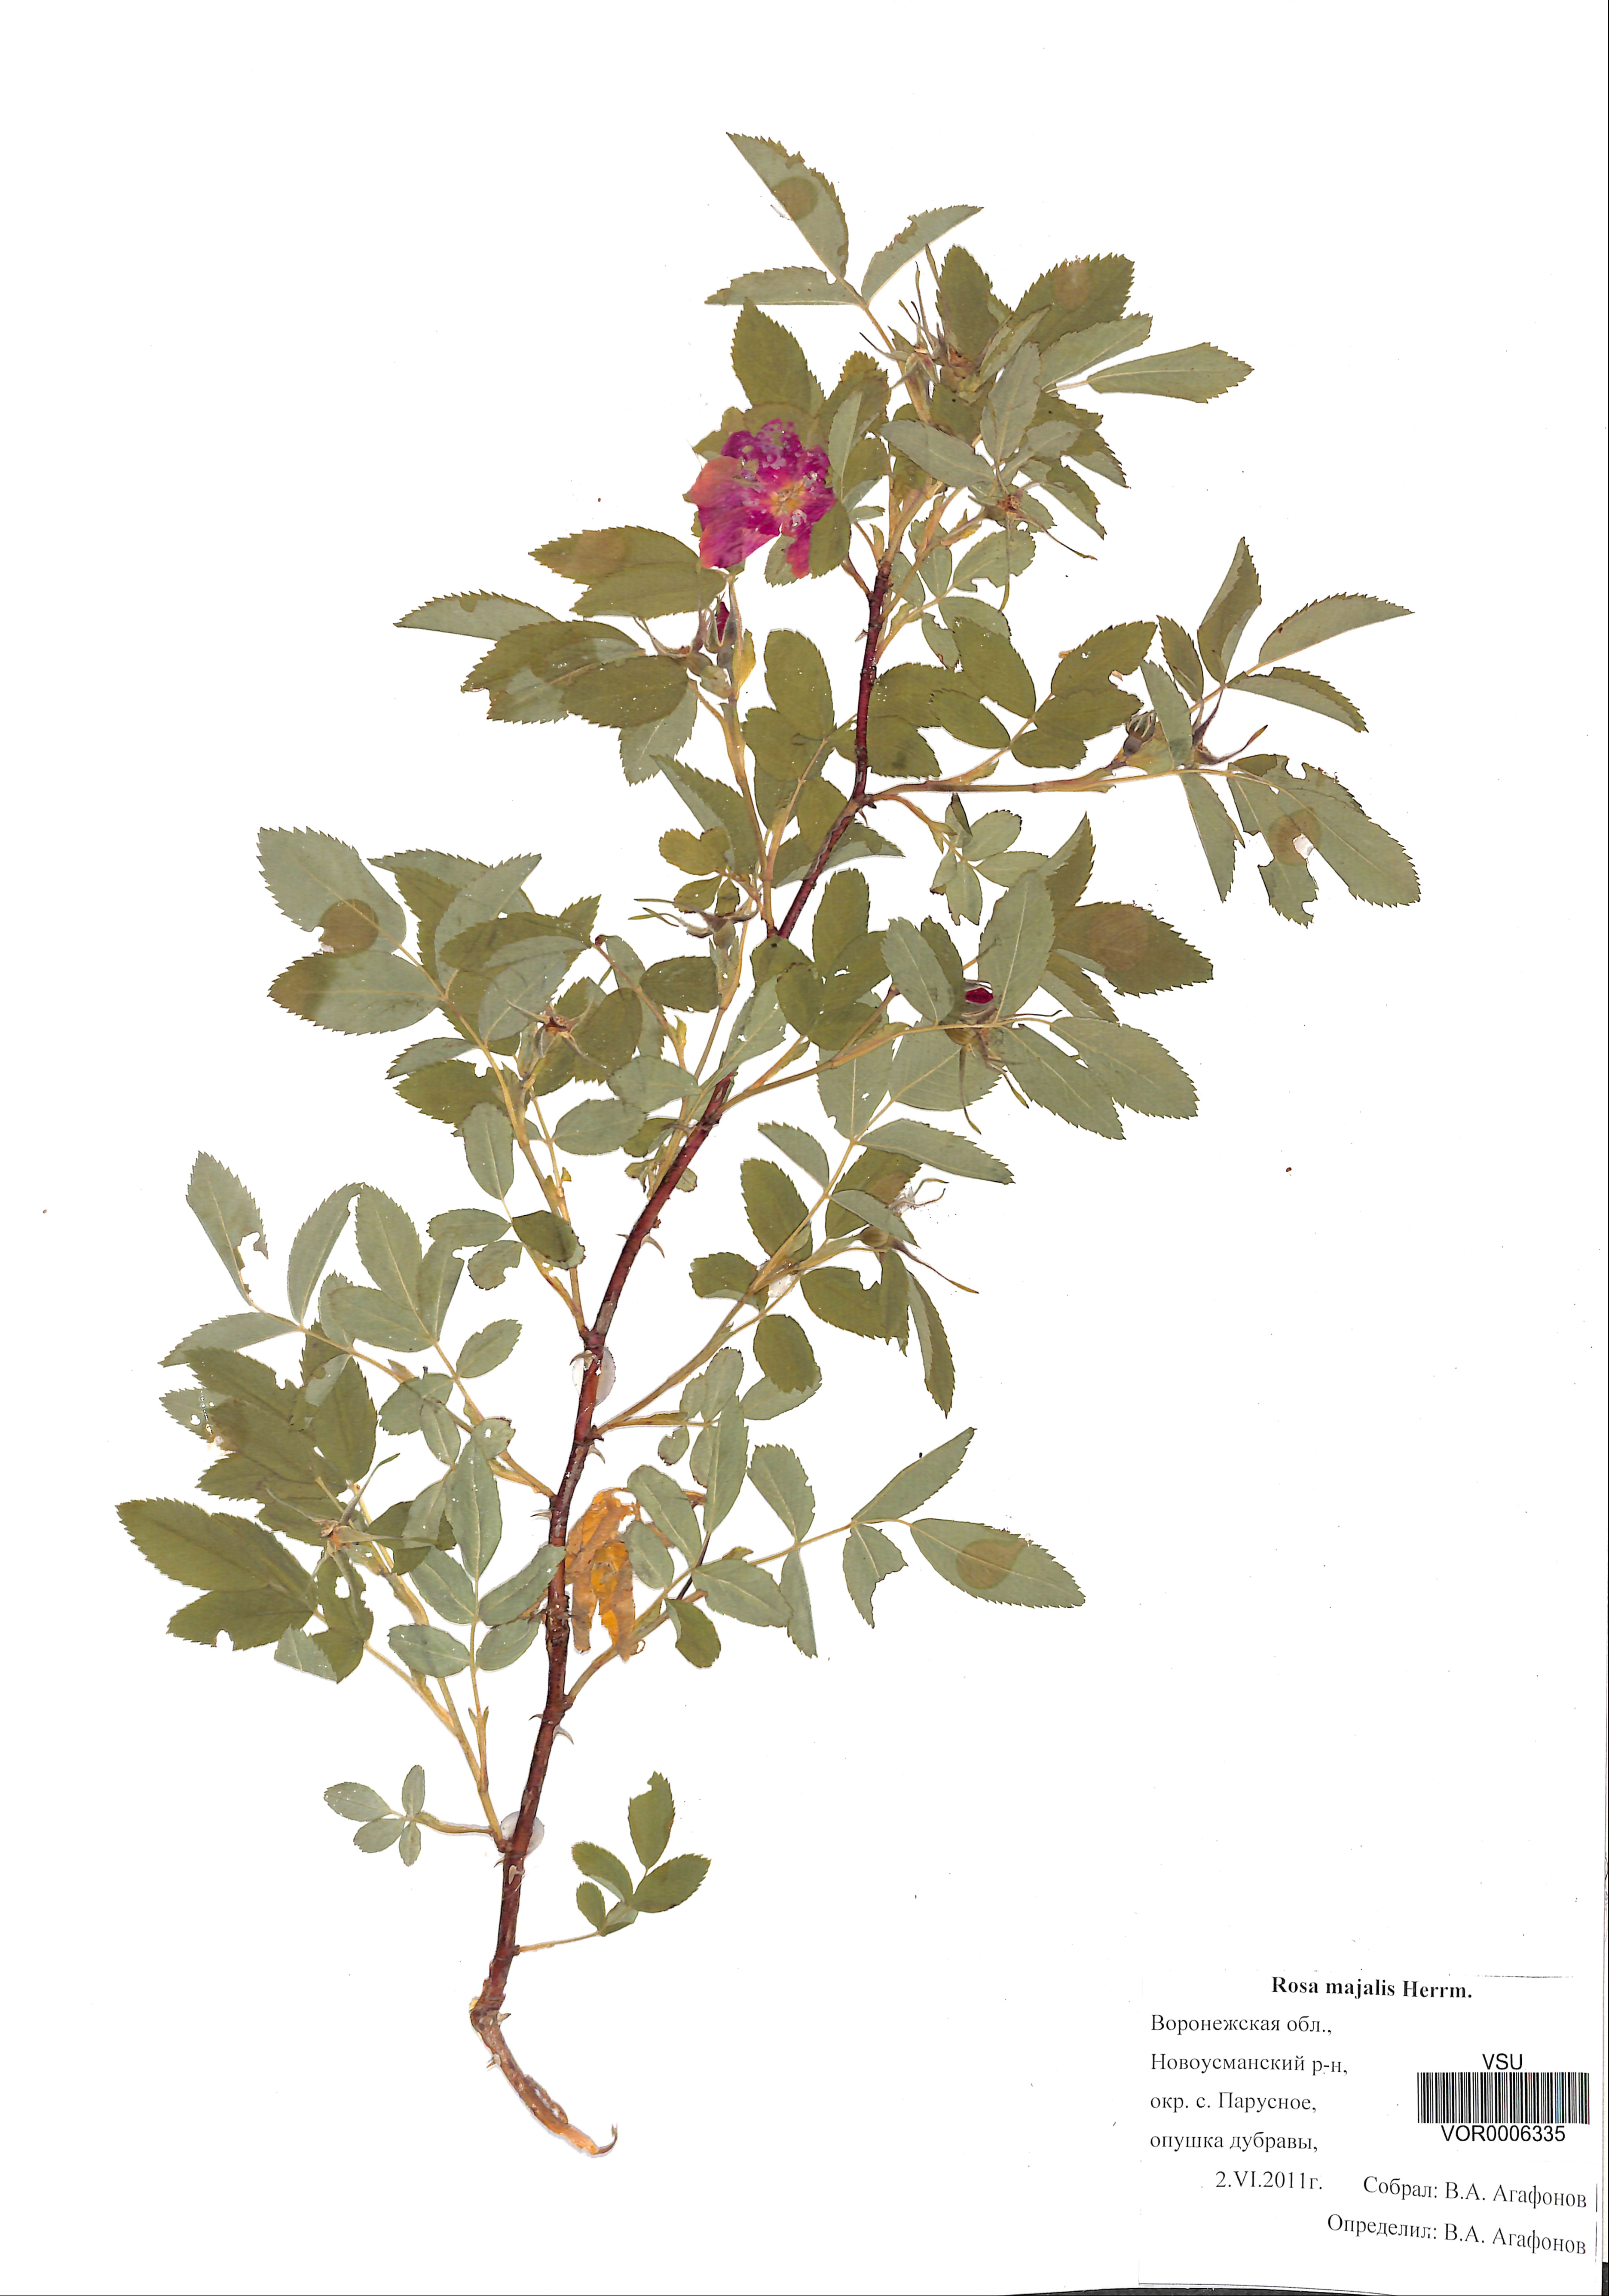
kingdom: Plantae
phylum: Tracheophyta
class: Magnoliopsida
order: Rosales
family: Rosaceae
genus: Rosa
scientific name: Rosa majalis
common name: Cinnamon rose
